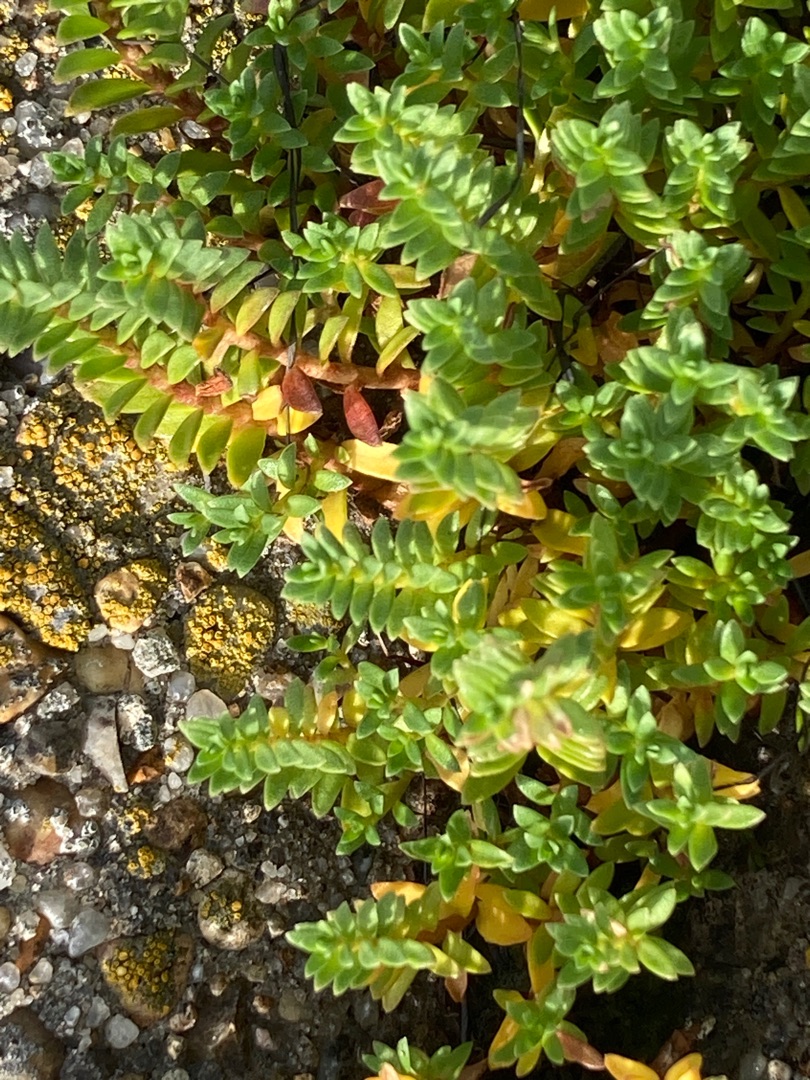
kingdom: Plantae
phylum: Tracheophyta
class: Magnoliopsida
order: Ericales
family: Primulaceae
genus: Lysimachia
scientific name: Lysimachia maritima
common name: Sandkryb
